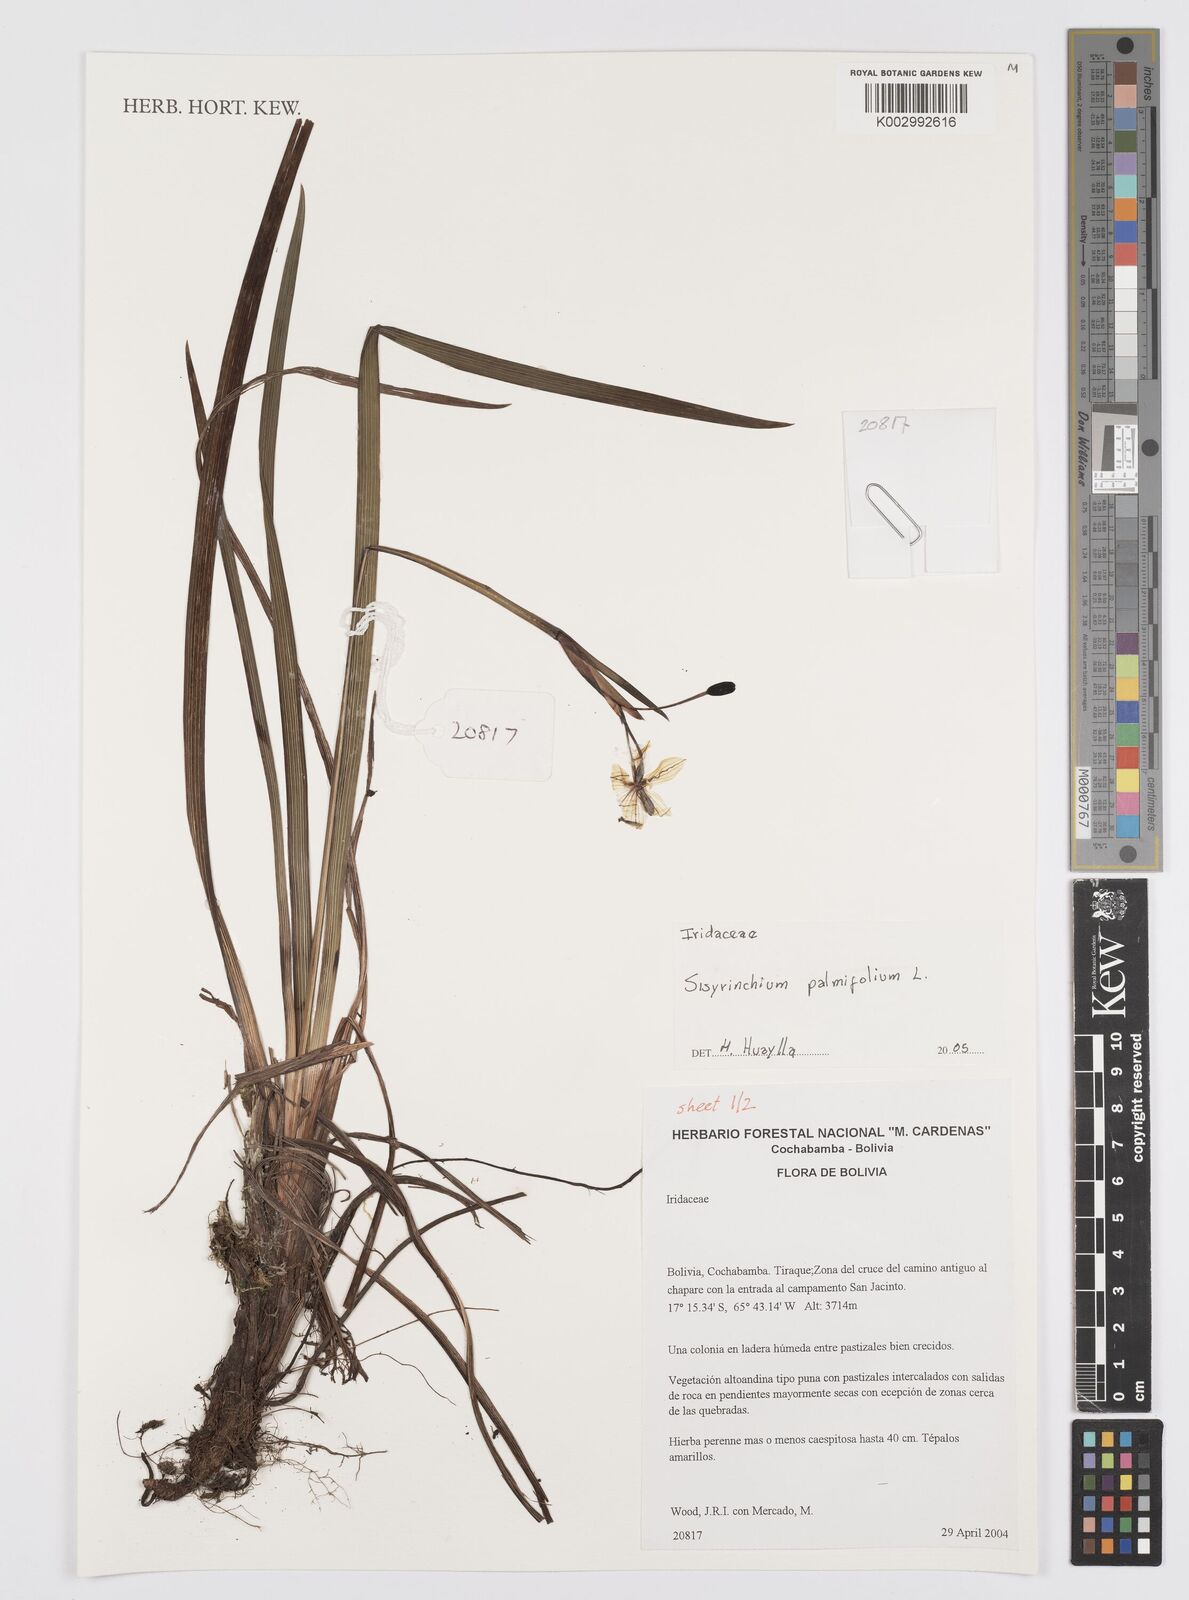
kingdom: Plantae
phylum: Tracheophyta
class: Liliopsida
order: Asparagales
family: Iridaceae
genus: Sisyrinchium
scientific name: Sisyrinchium palmifolium
